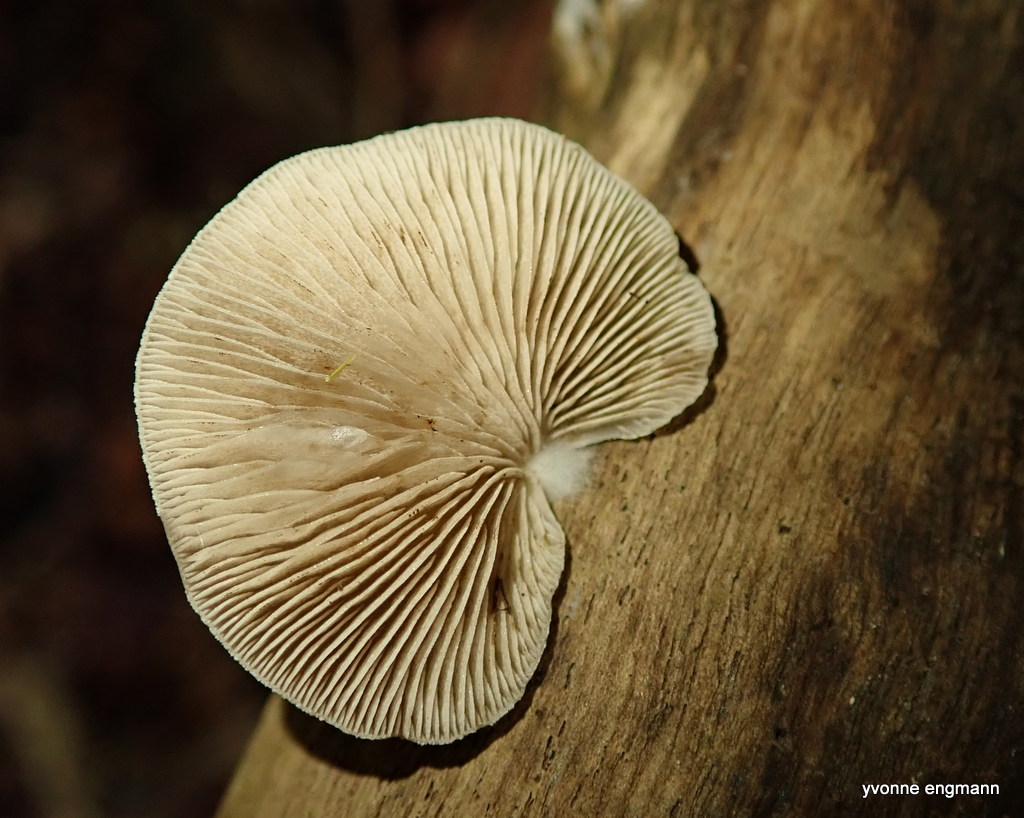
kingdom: Fungi
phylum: Basidiomycota
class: Agaricomycetes
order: Agaricales
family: Crepidotaceae
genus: Crepidotus
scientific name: Crepidotus mollis
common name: blød muslingesvamp
